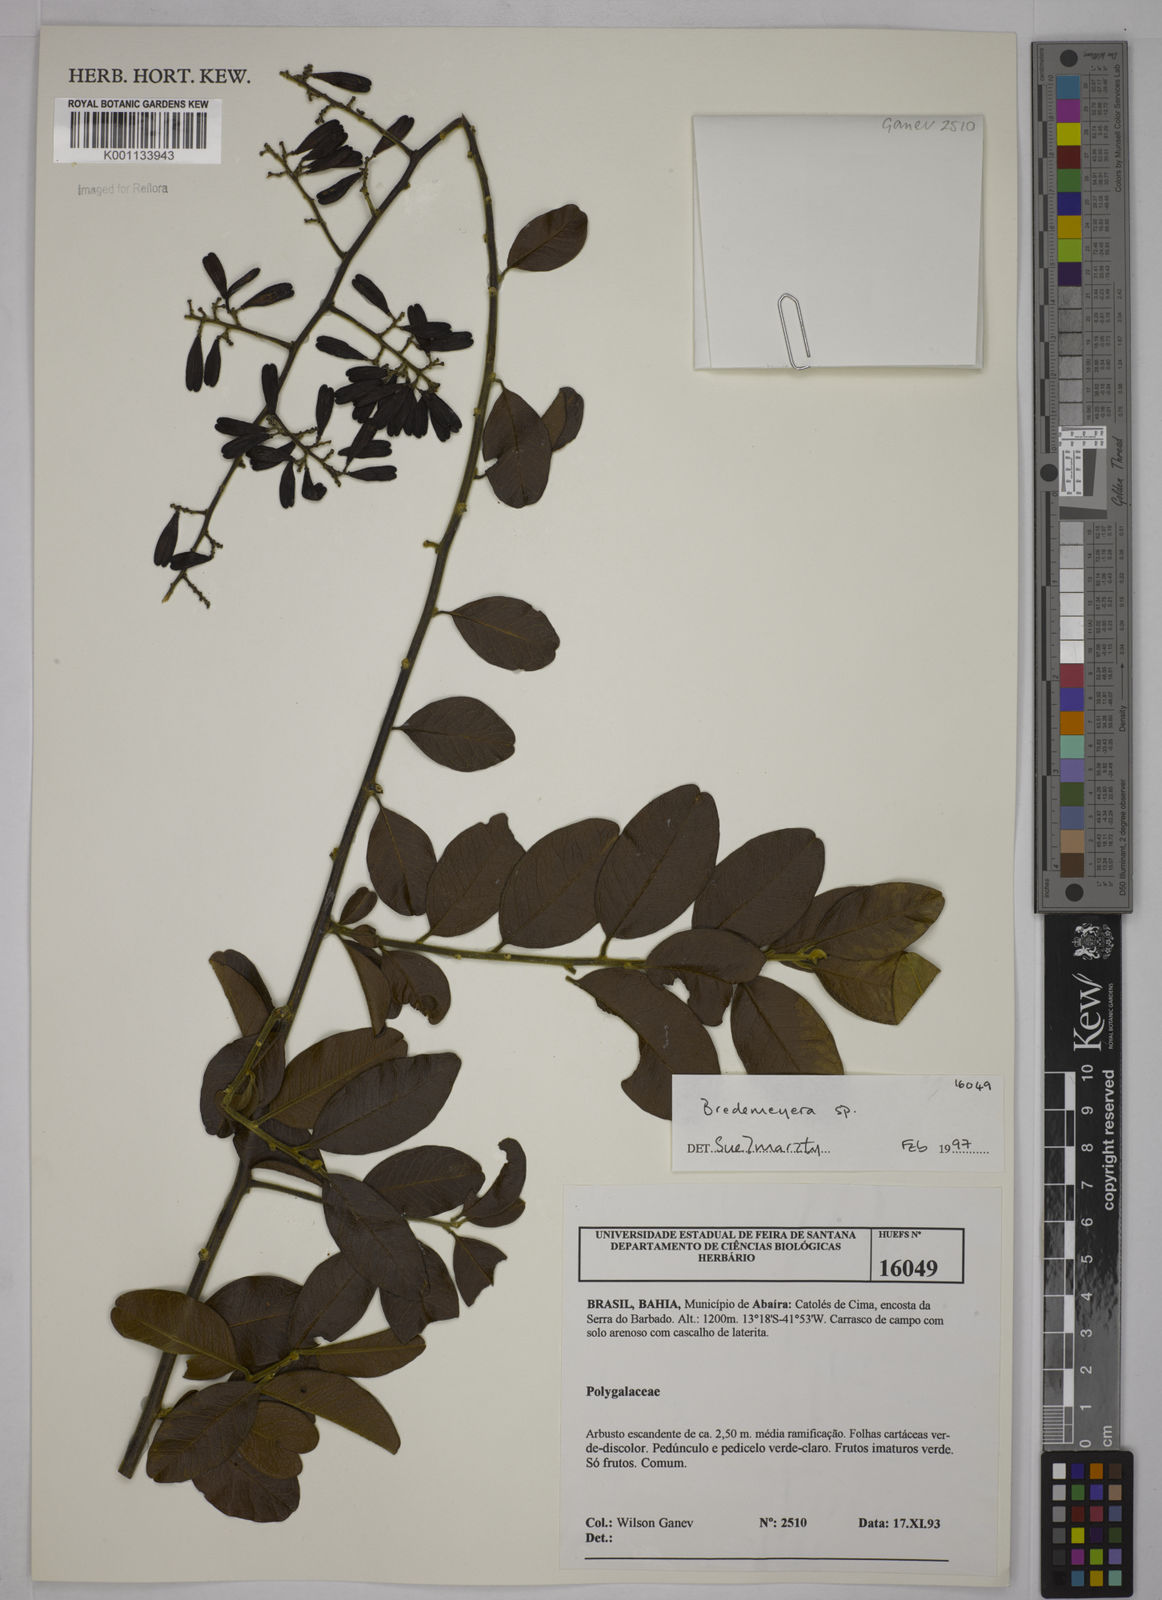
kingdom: Plantae
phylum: Tracheophyta
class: Magnoliopsida
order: Fabales
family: Polygalaceae
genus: Bredemeyera
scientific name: Bredemeyera
